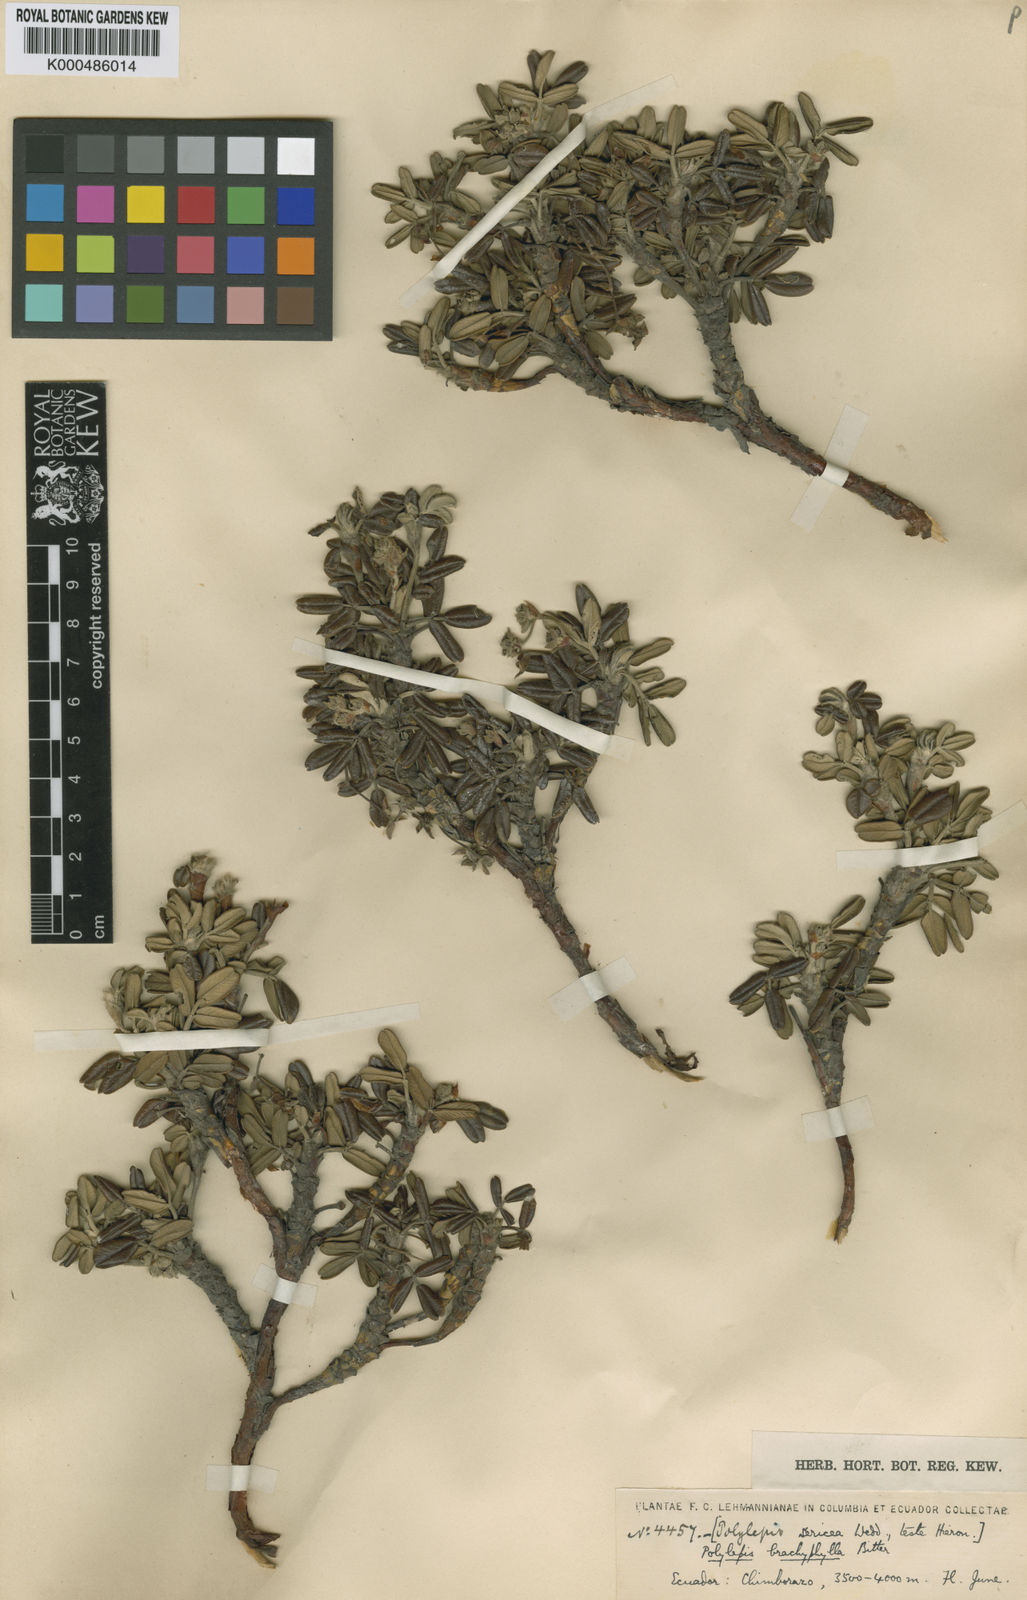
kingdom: Plantae
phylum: Tracheophyta
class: Magnoliopsida
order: Rosales
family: Rosaceae
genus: Polylepis
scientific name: Polylepis sericea
